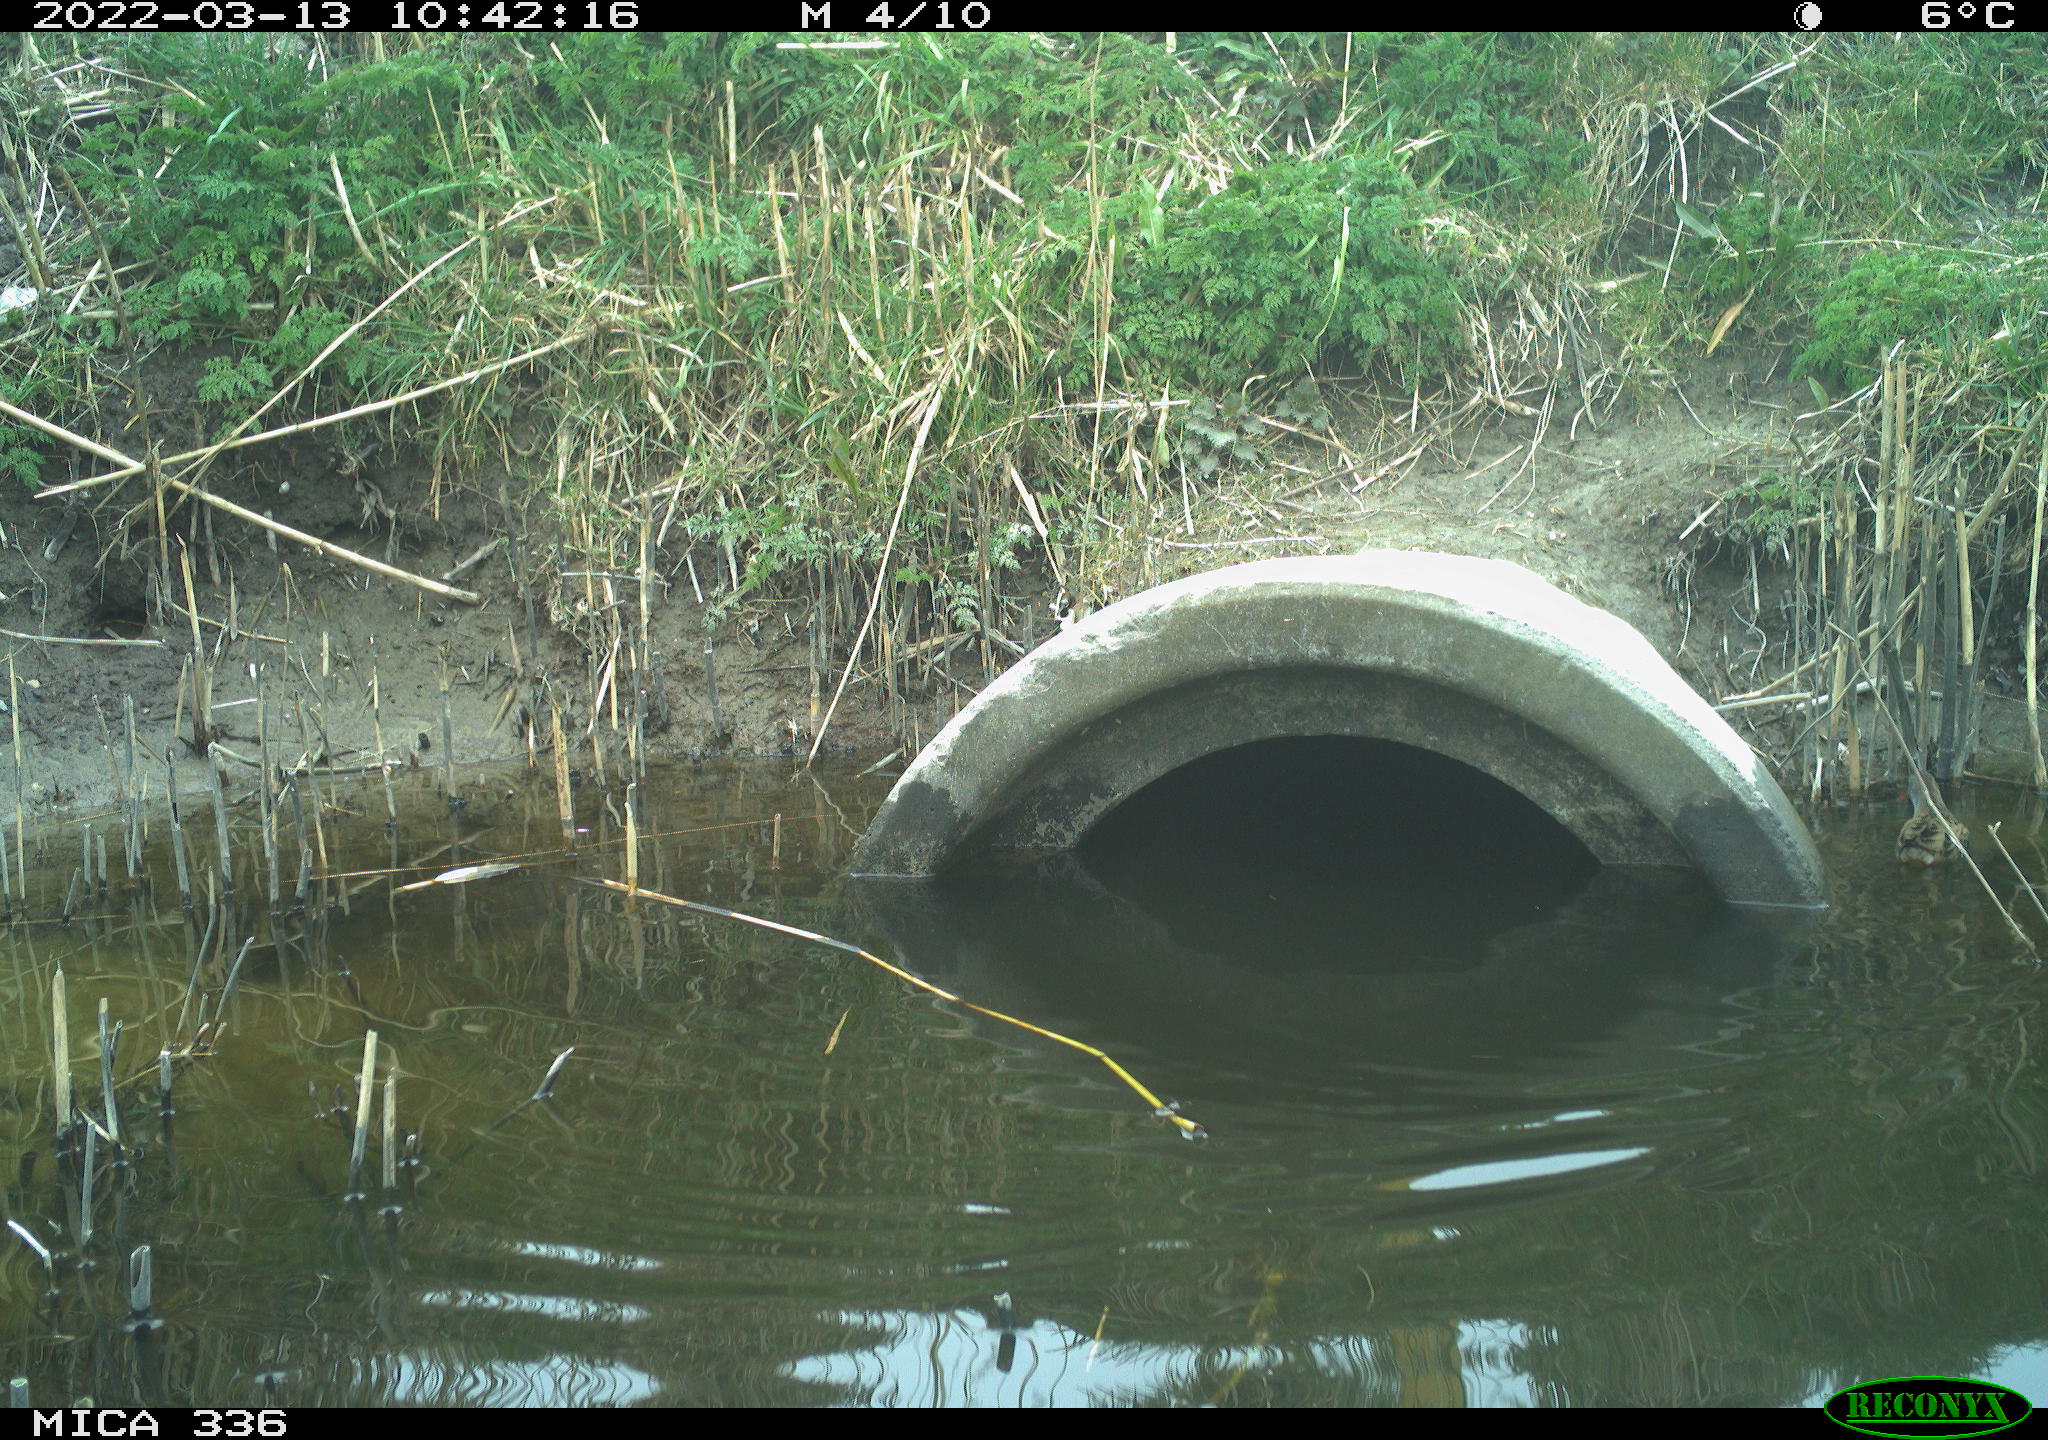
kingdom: Animalia
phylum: Chordata
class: Aves
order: Gruiformes
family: Rallidae
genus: Rallus
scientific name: Rallus aquaticus
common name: Water rail
